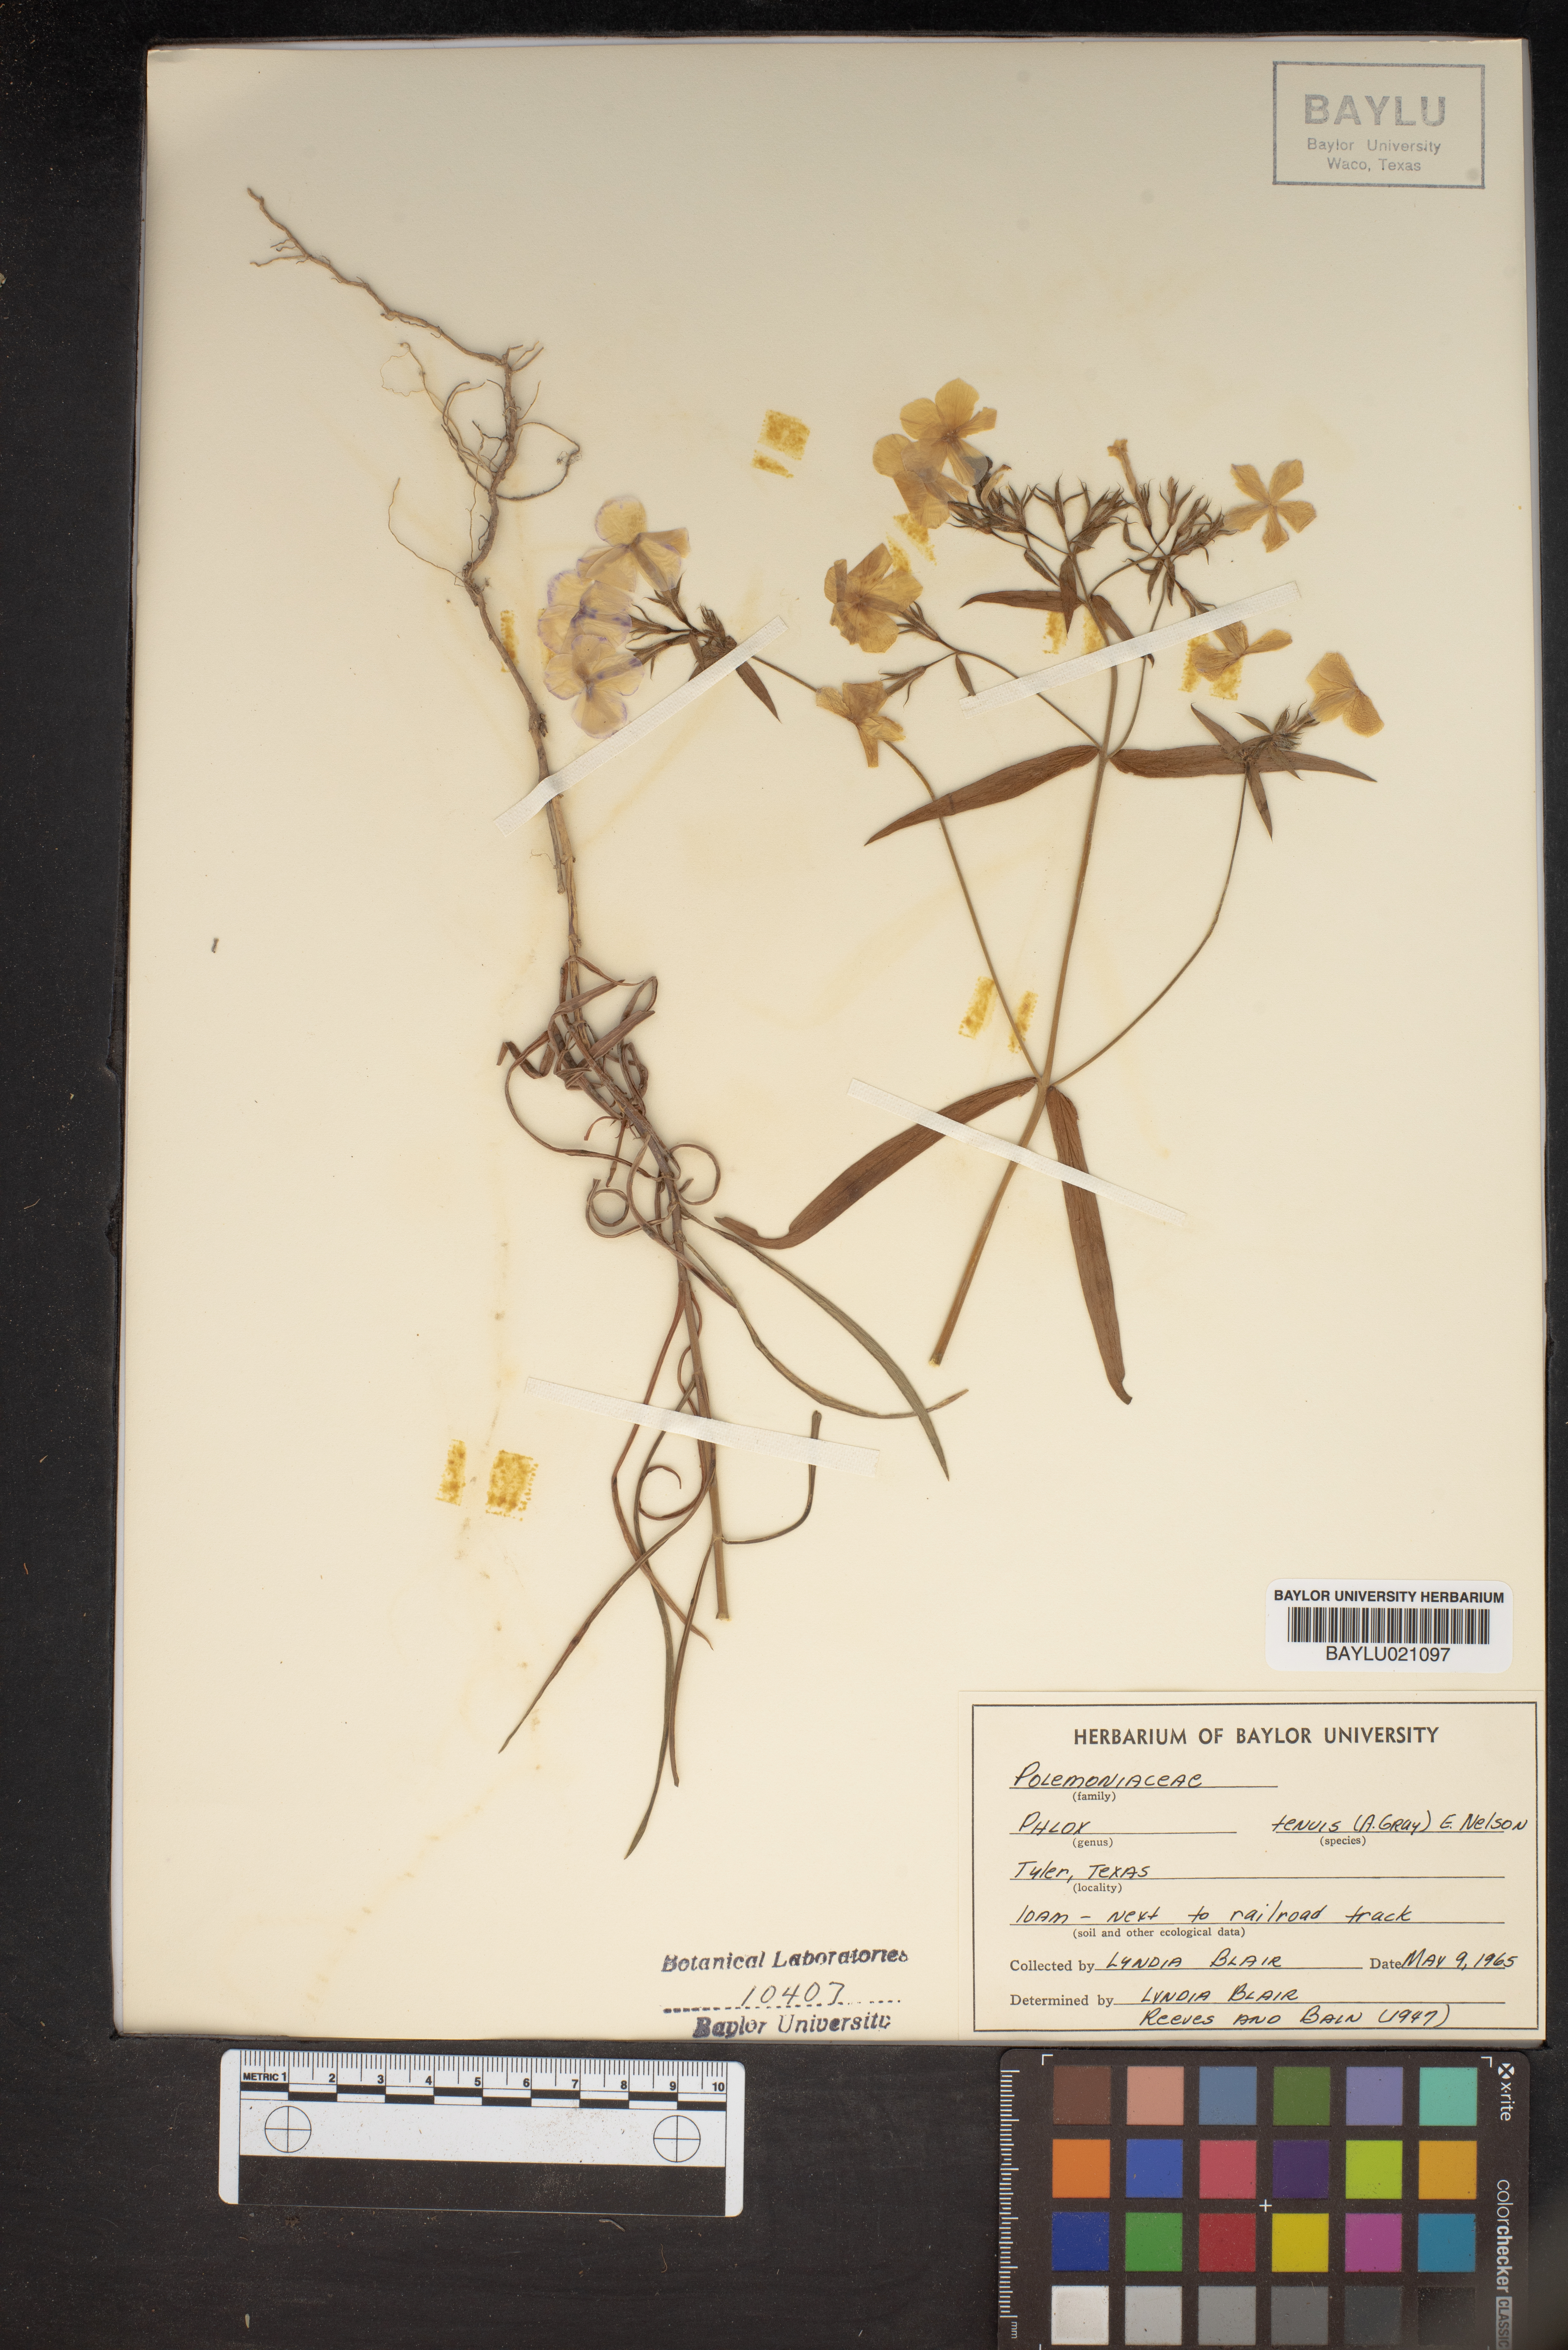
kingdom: Plantae
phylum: Tracheophyta
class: Magnoliopsida
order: Ericales
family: Polemoniaceae
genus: Phlox
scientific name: Phlox longifolia
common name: Longleaf phlox
